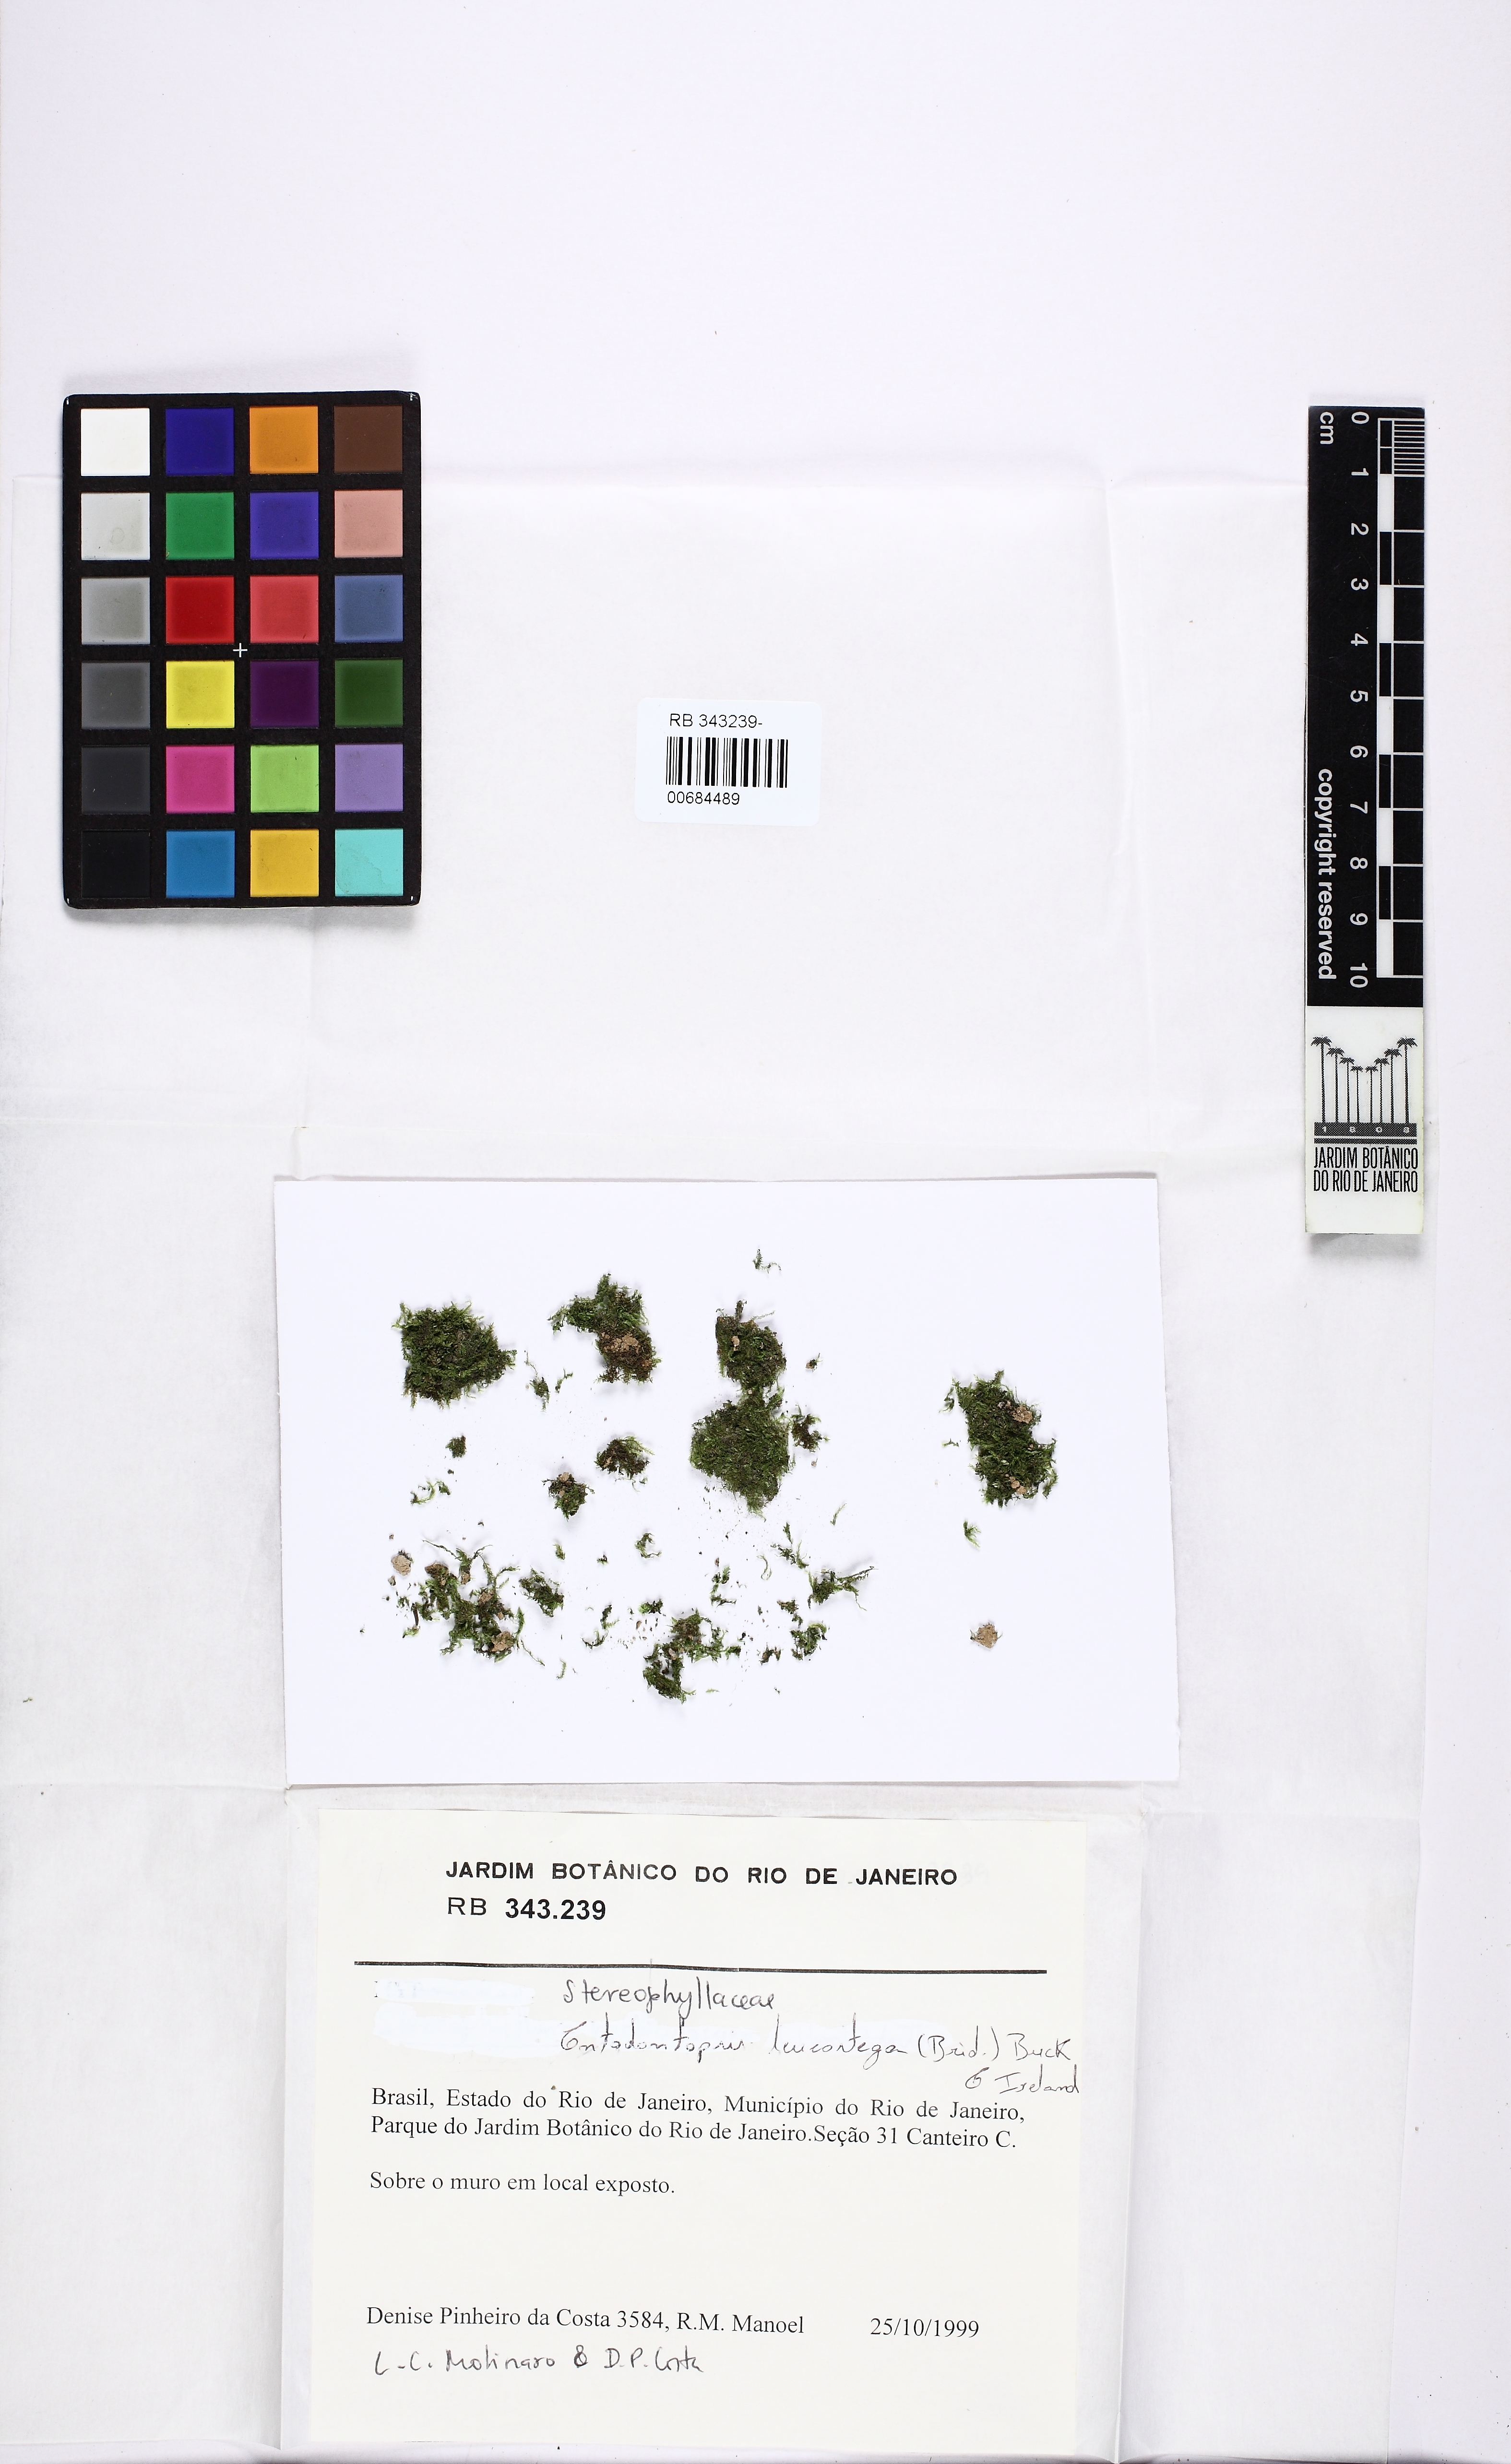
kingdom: Plantae
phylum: Bryophyta
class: Bryopsida
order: Hypnales
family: Stereophyllaceae
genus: Entodontopsis
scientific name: Entodontopsis leucostega
